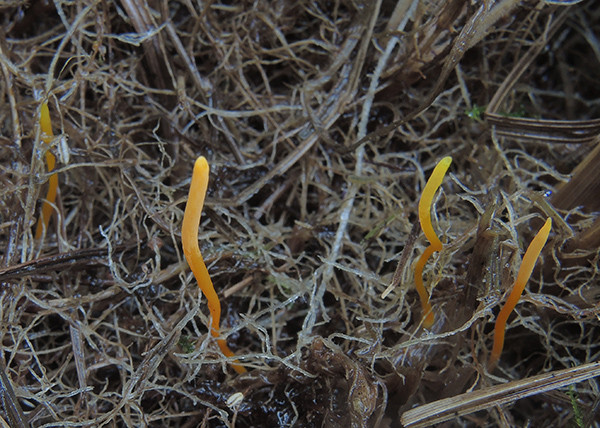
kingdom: Fungi
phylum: Basidiomycota
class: Agaricomycetes
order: Agaricales
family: Clavariaceae
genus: Clavulinopsis
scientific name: Clavulinopsis laeticolor
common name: flamme-køllesvamp
